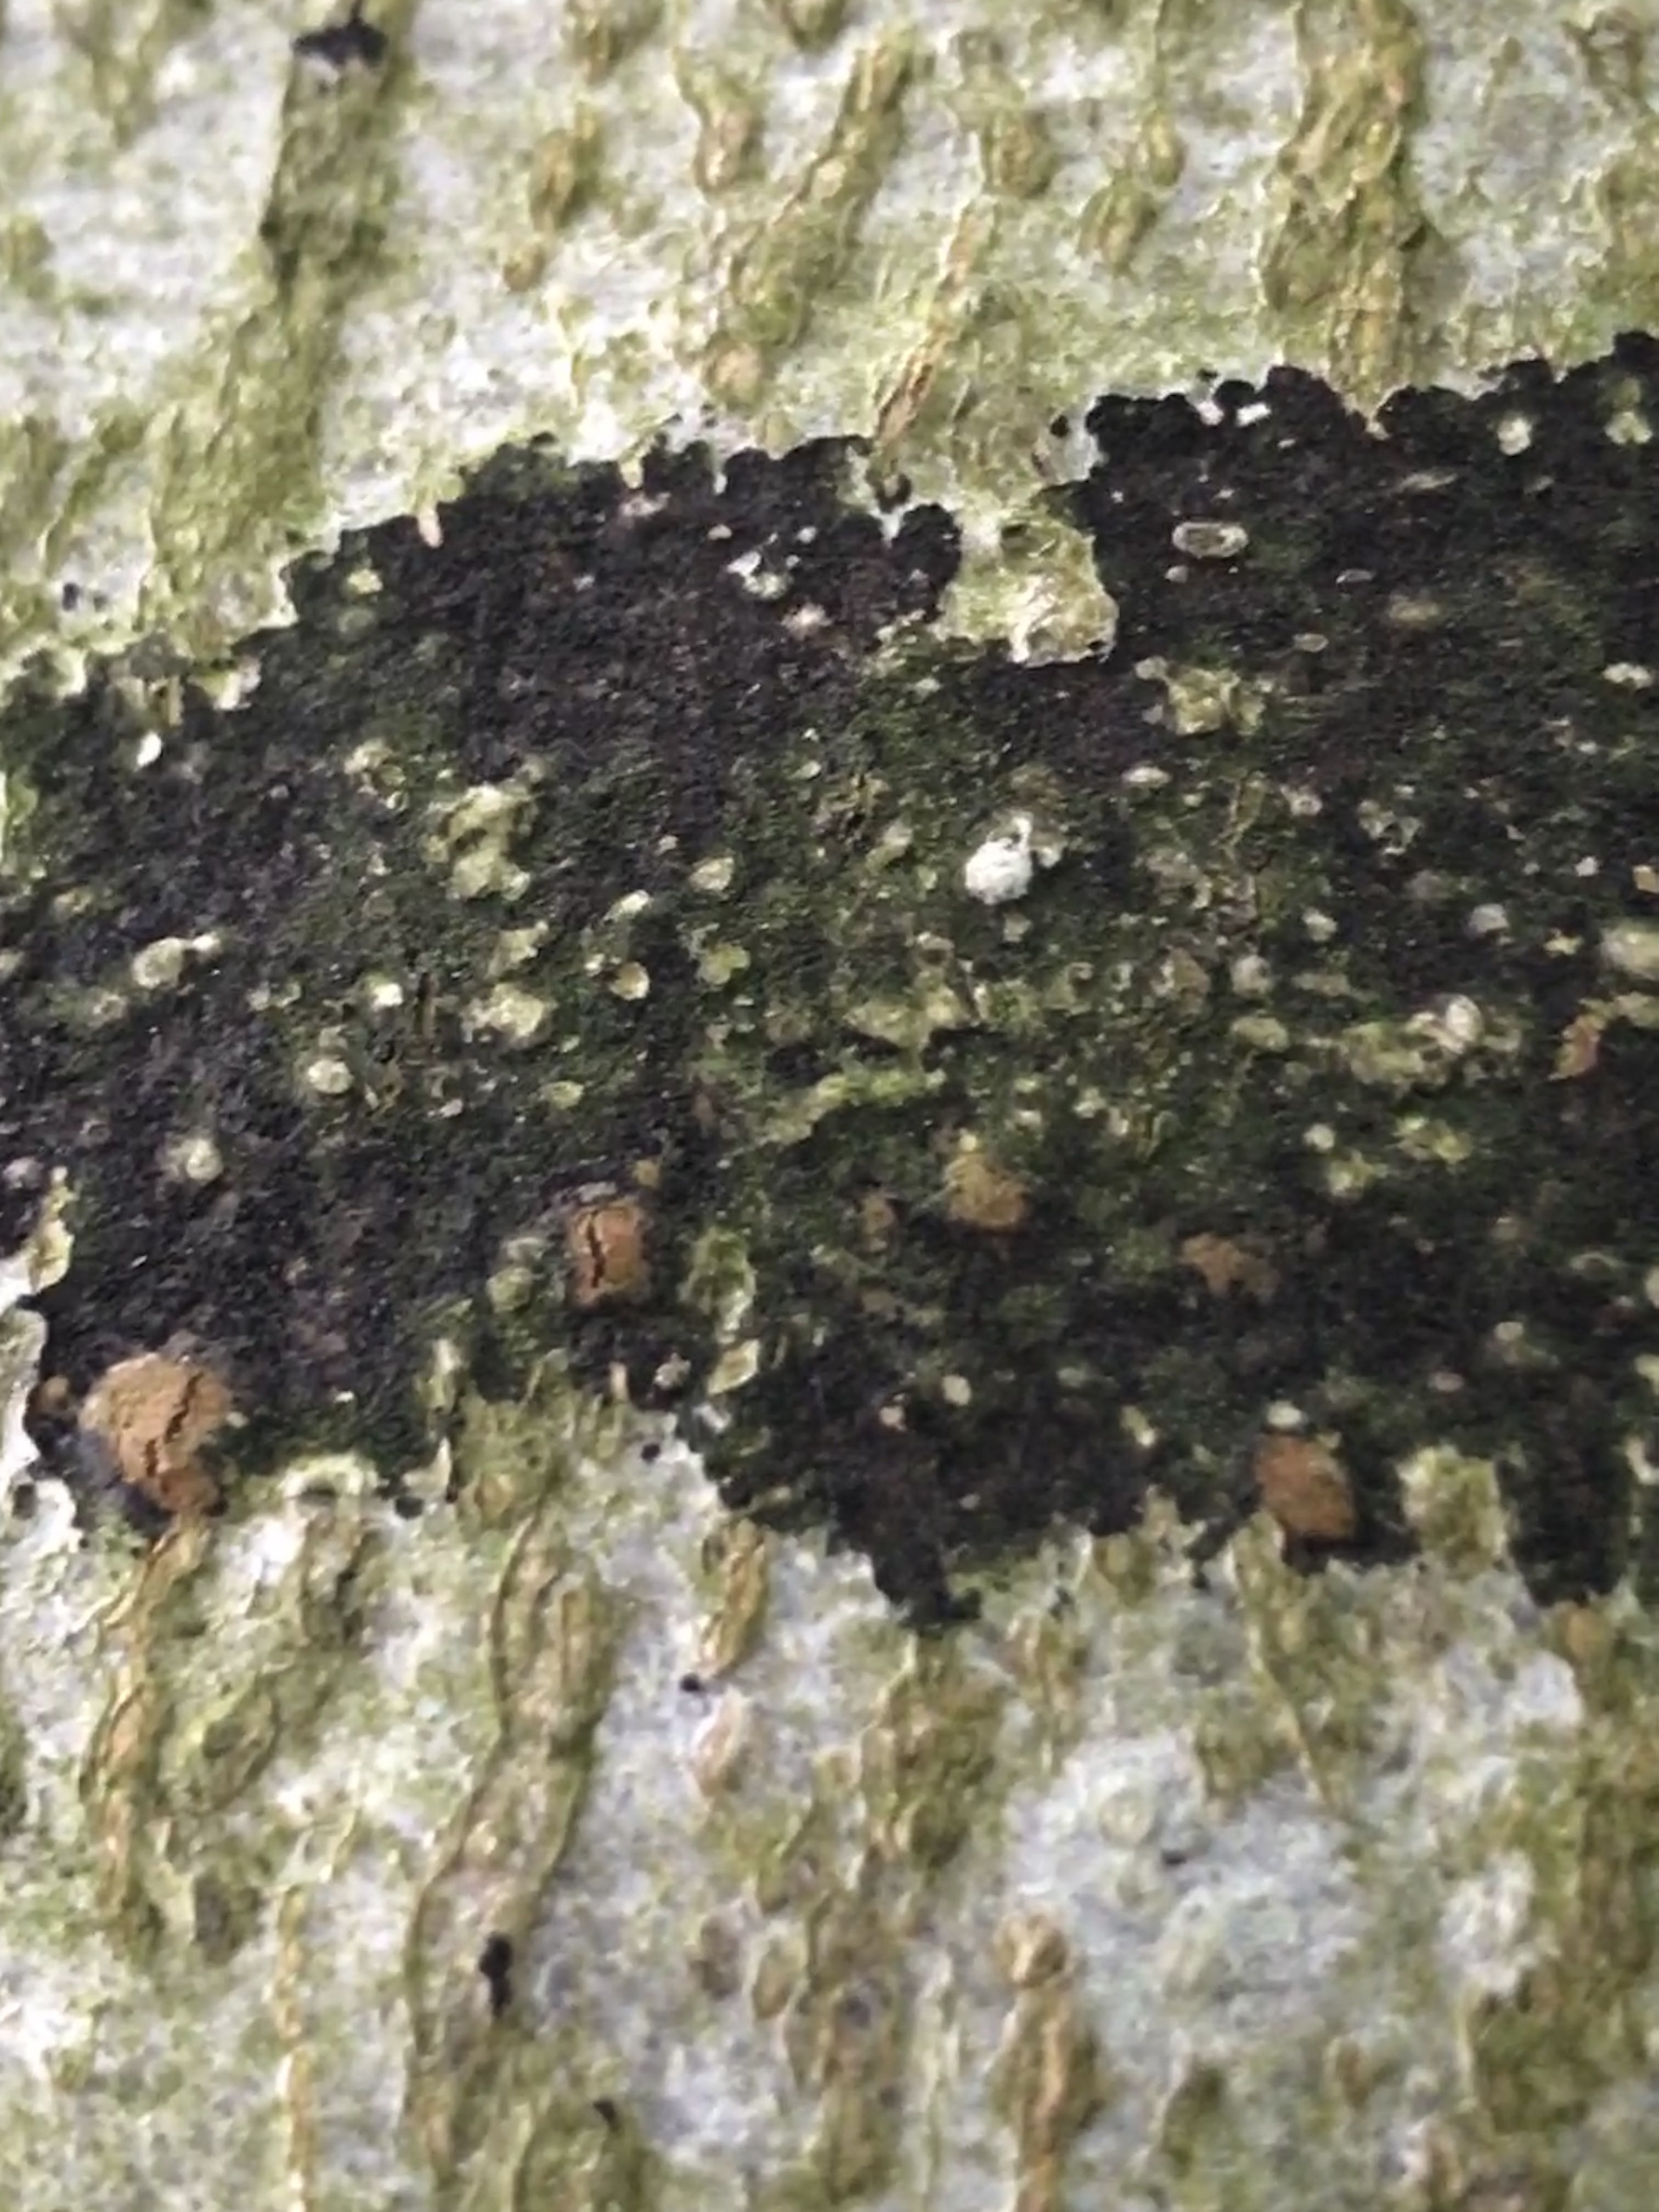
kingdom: Fungi
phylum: Ascomycota
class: Leotiomycetes
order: Rhytismatales
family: Ascodichaenaceae
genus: Ascodichaena
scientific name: Ascodichaena rugosa
